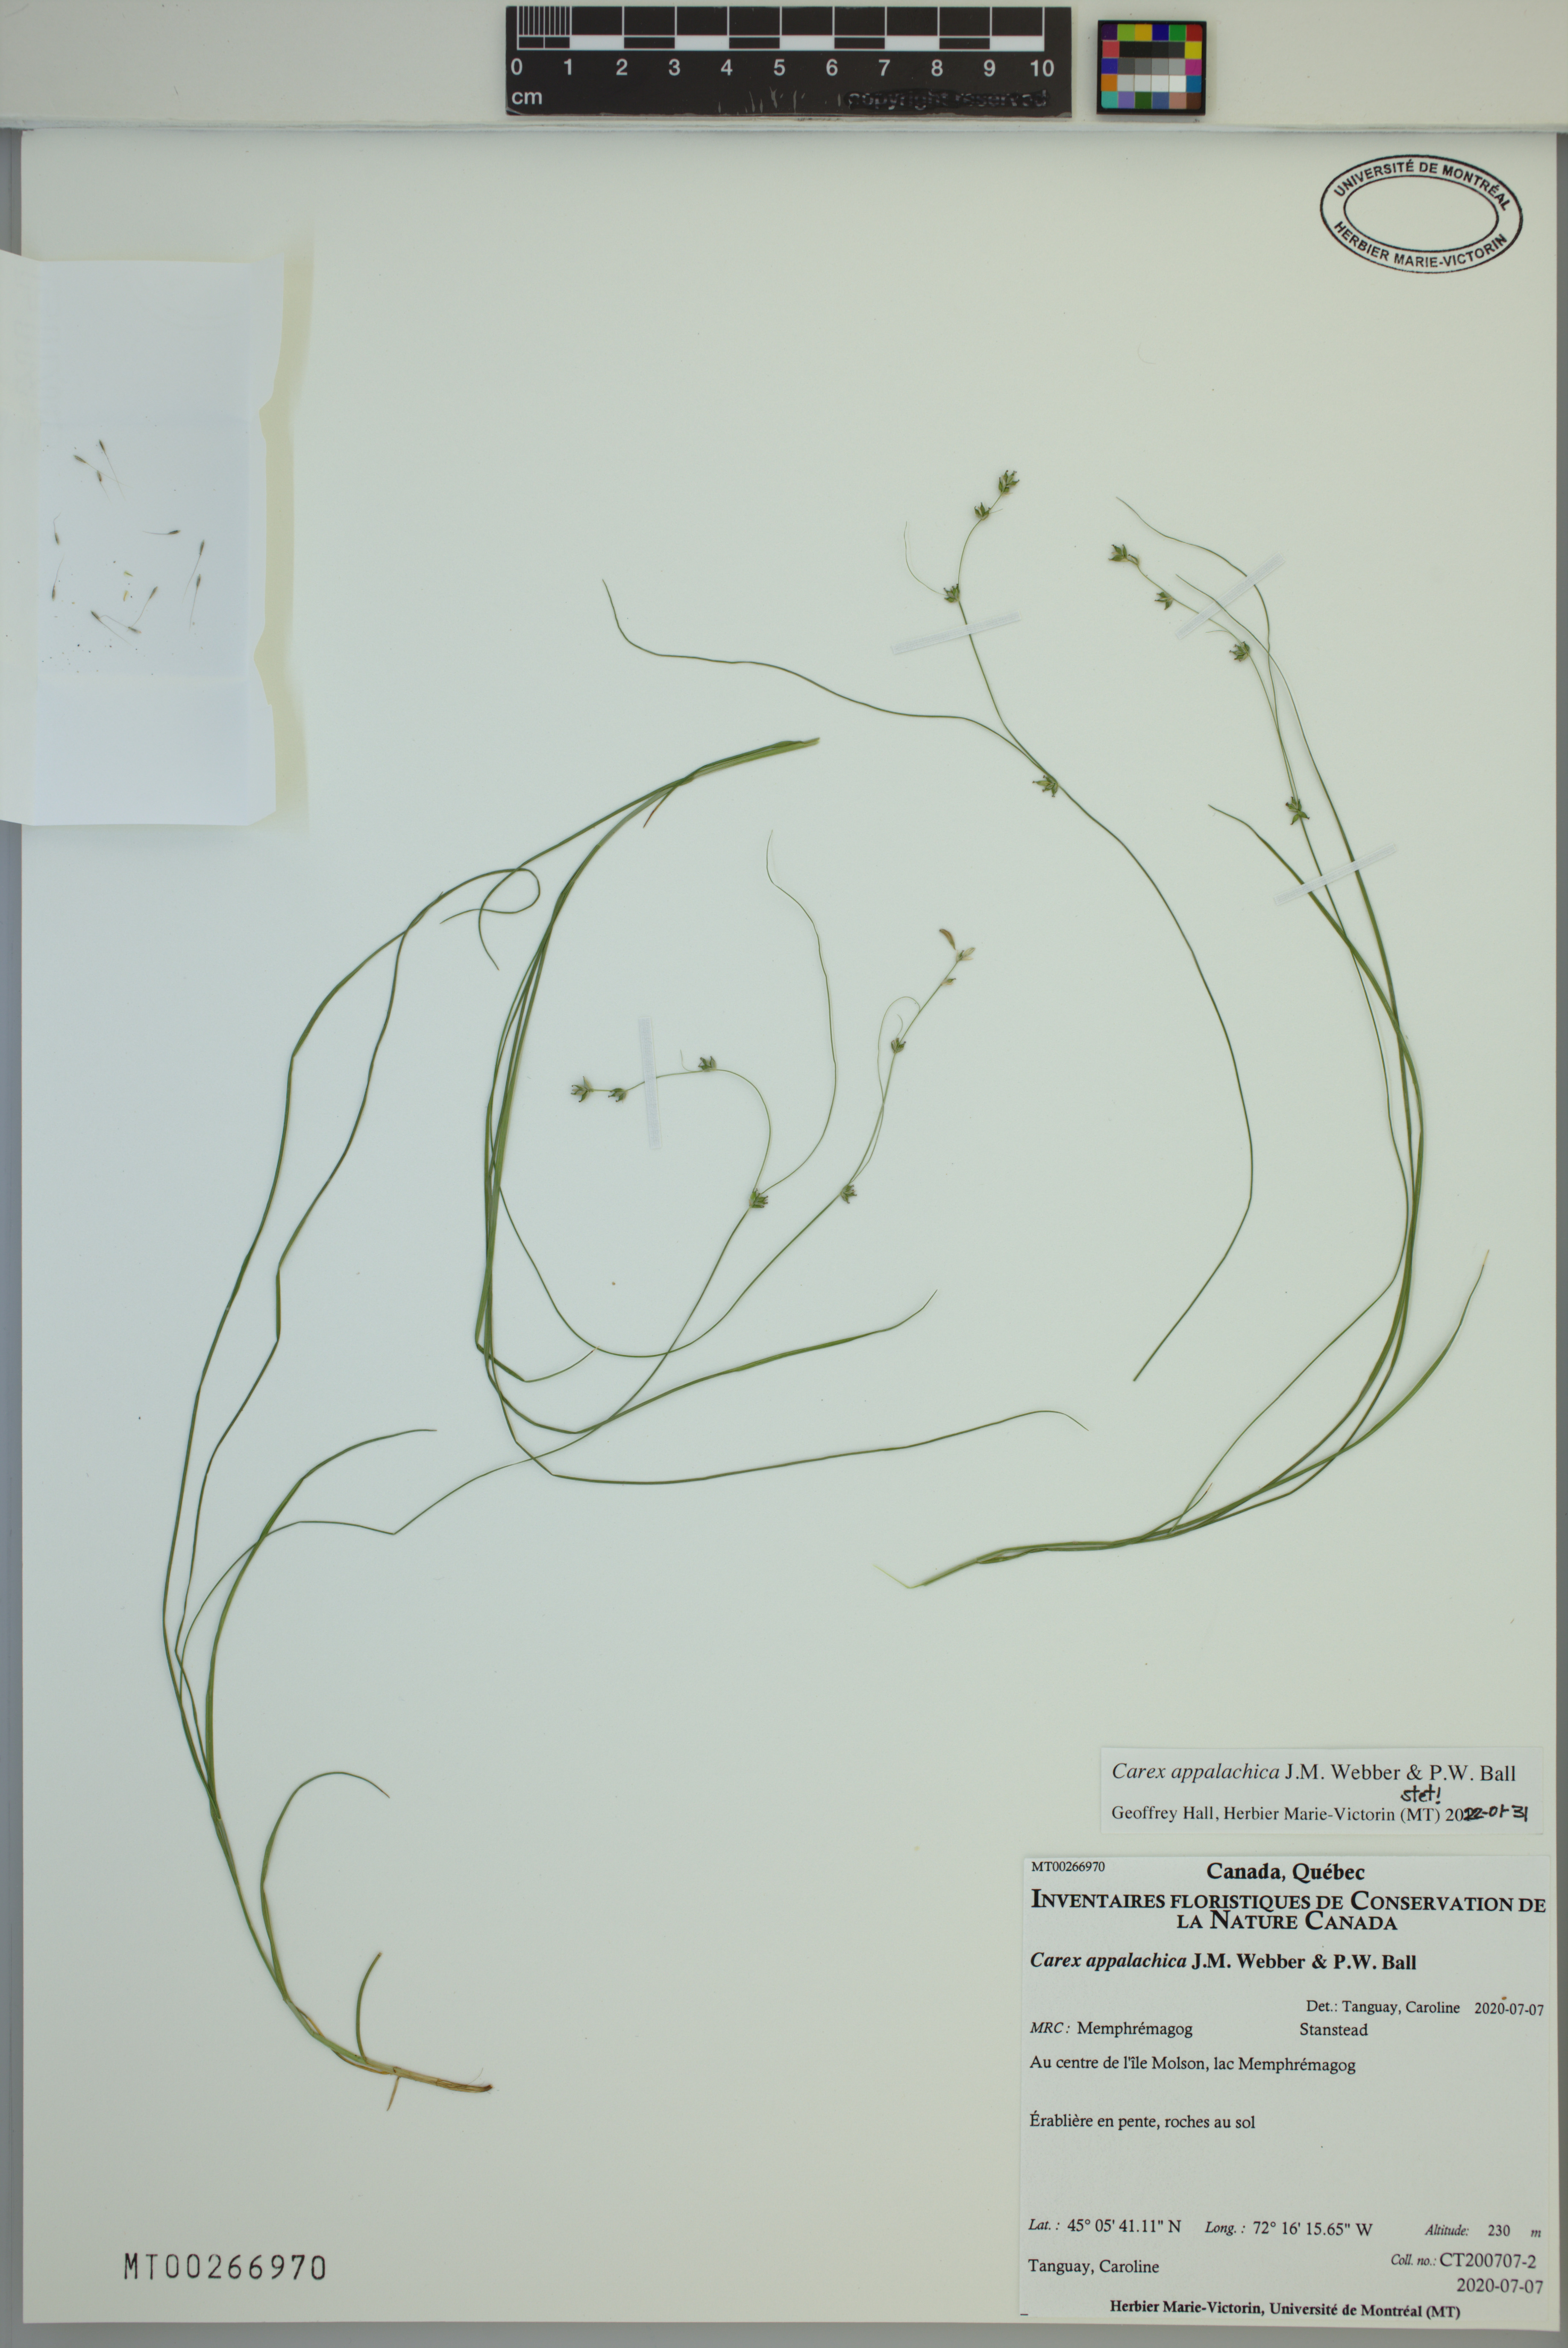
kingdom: Plantae
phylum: Tracheophyta
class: Liliopsida
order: Poales
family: Cyperaceae
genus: Carex
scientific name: Carex appalachica
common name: Appalachian sedge
